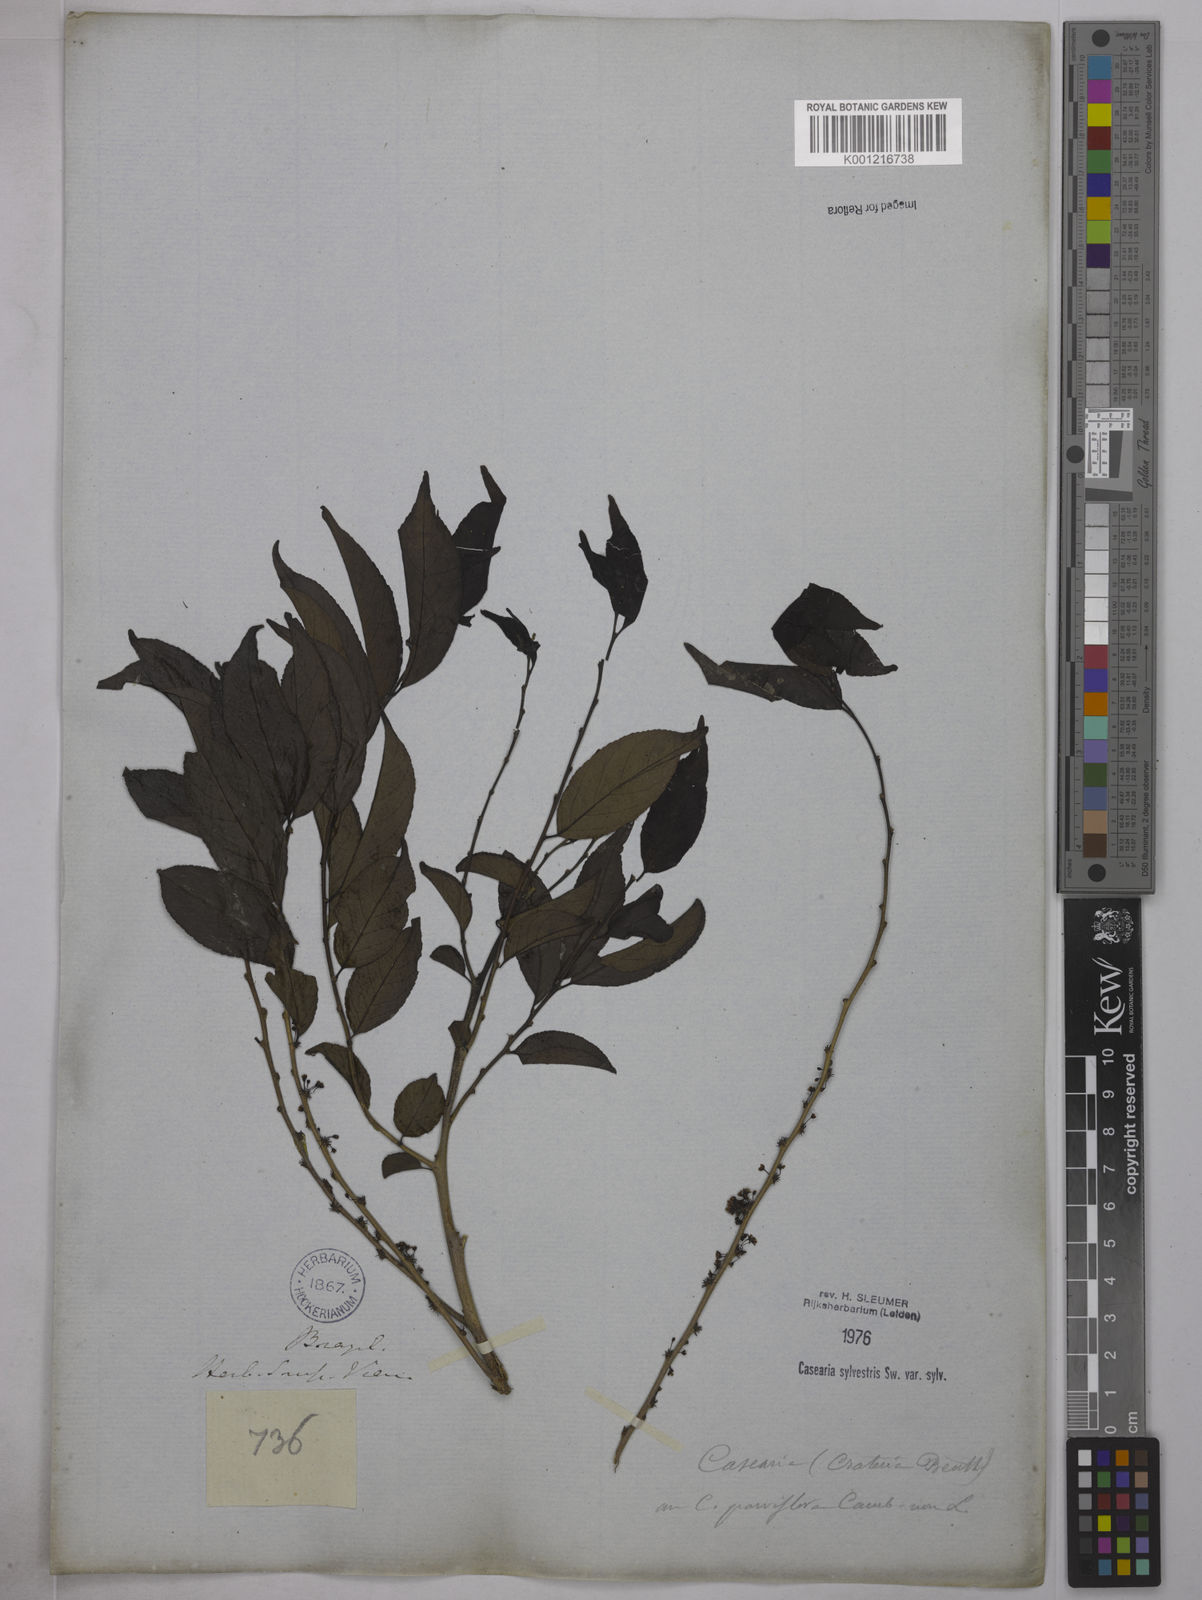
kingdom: Plantae
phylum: Tracheophyta
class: Magnoliopsida
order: Malpighiales
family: Salicaceae
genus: Casearia
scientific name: Casearia sylvestris
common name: Wild sage
